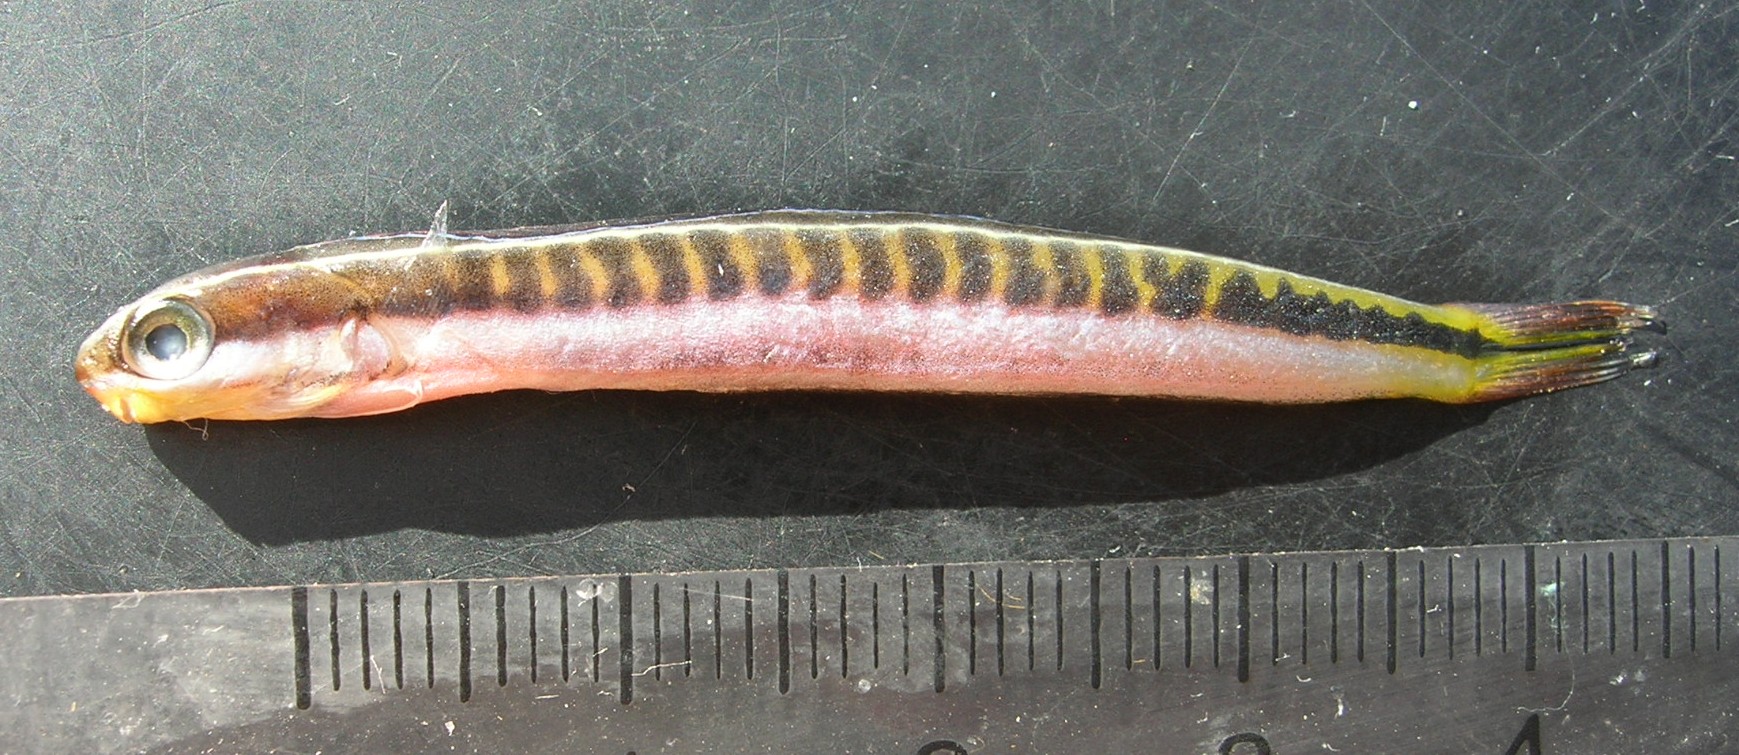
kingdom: Animalia
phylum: Chordata
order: Perciformes
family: Blenniidae
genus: Plagiotremus
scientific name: Plagiotremus tapeinosoma
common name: Hit and run blenny
